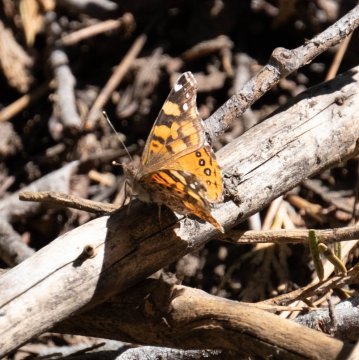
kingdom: Animalia
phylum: Arthropoda
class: Insecta
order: Lepidoptera
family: Nymphalidae
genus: Vanessa
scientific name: Vanessa annabella
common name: West Coast Lady
